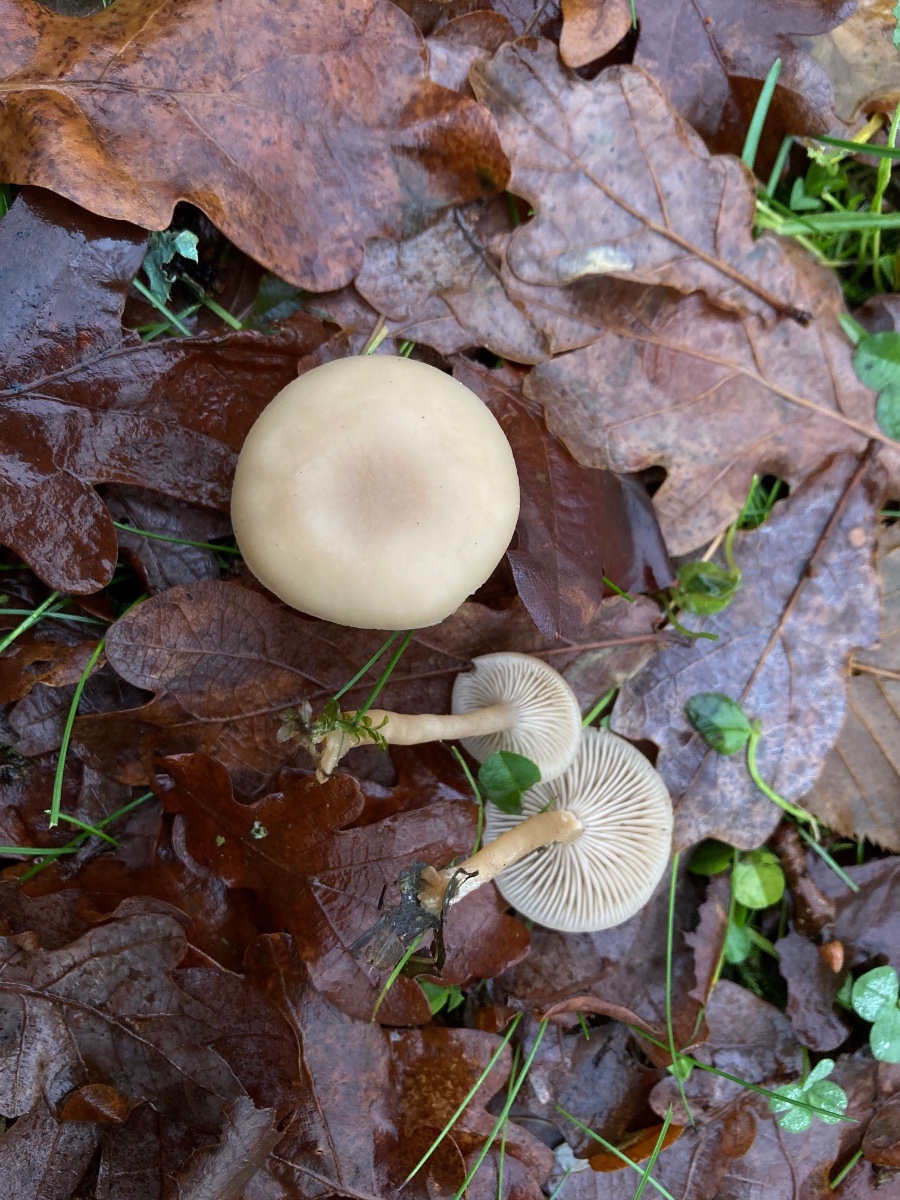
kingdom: Fungi
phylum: Basidiomycota
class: Agaricomycetes
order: Agaricales
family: Tricholomataceae
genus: Clitocybe
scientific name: Clitocybe fragrans
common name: vellugtende tragthat
